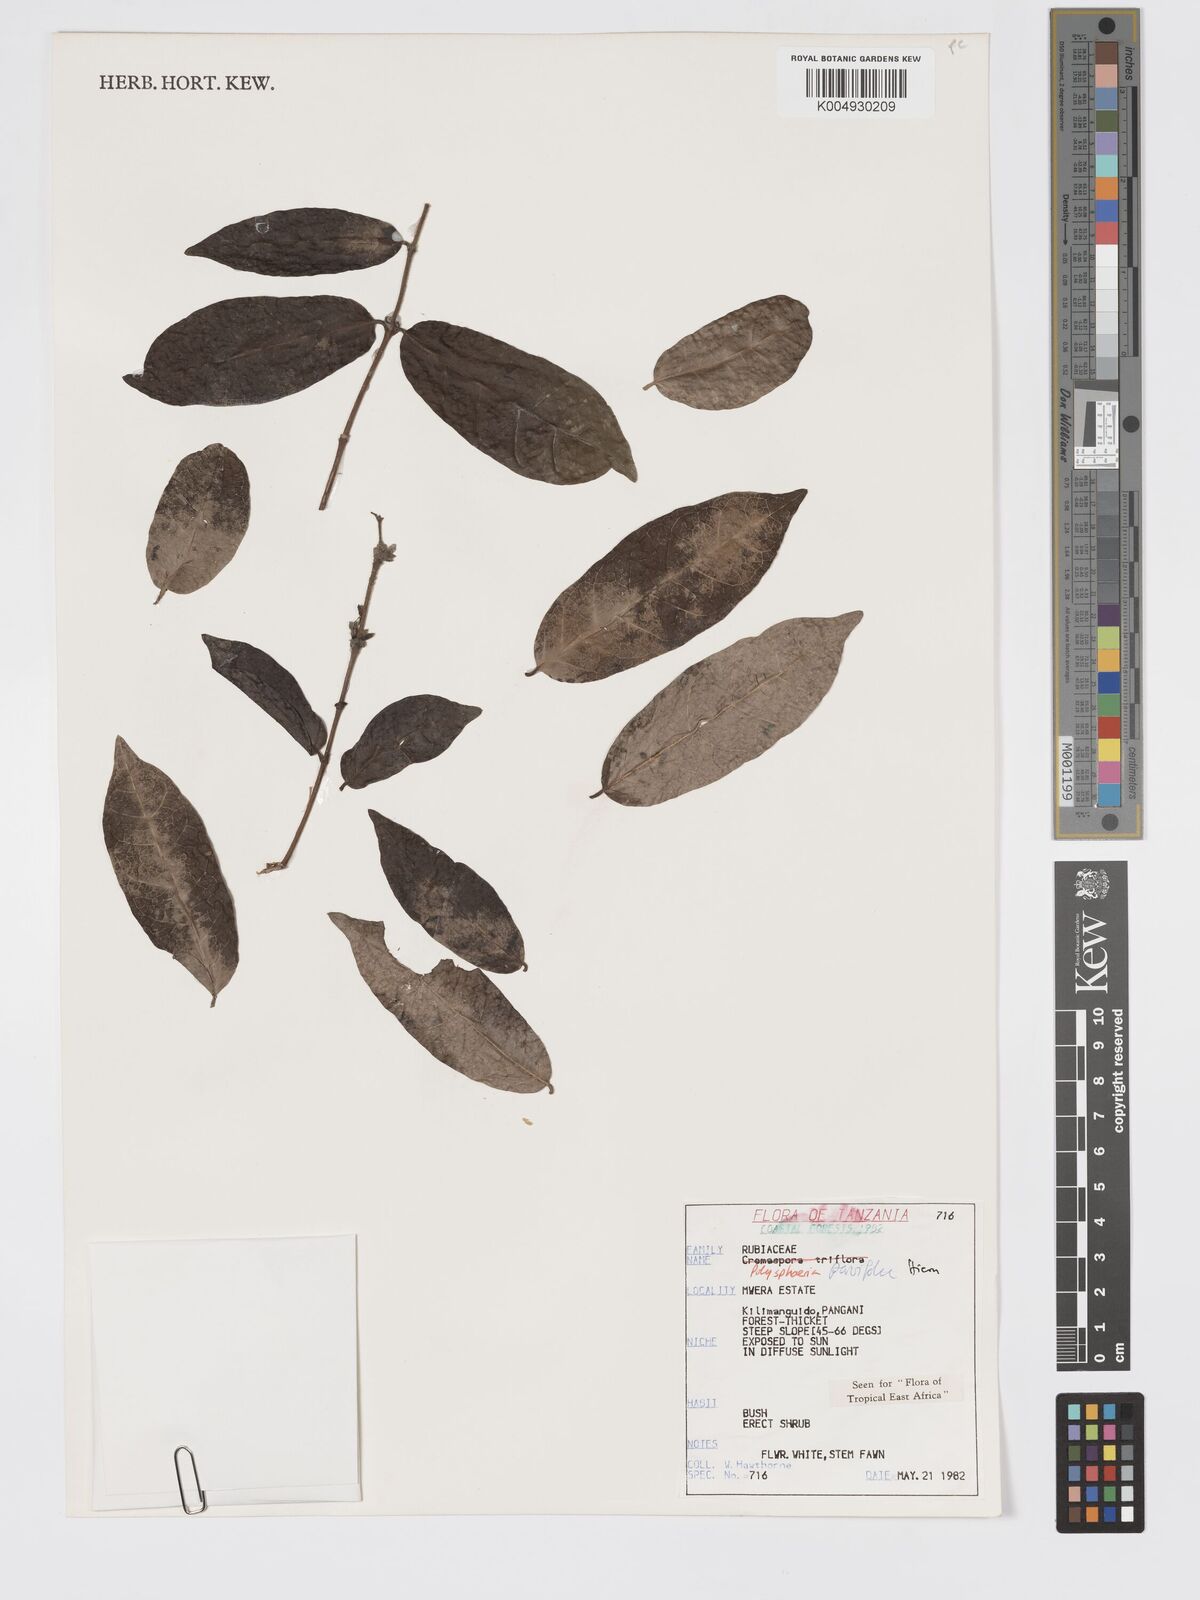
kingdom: Plantae
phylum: Tracheophyta
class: Magnoliopsida
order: Gentianales
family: Rubiaceae
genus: Polysphaeria
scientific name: Polysphaeria parvifolia
